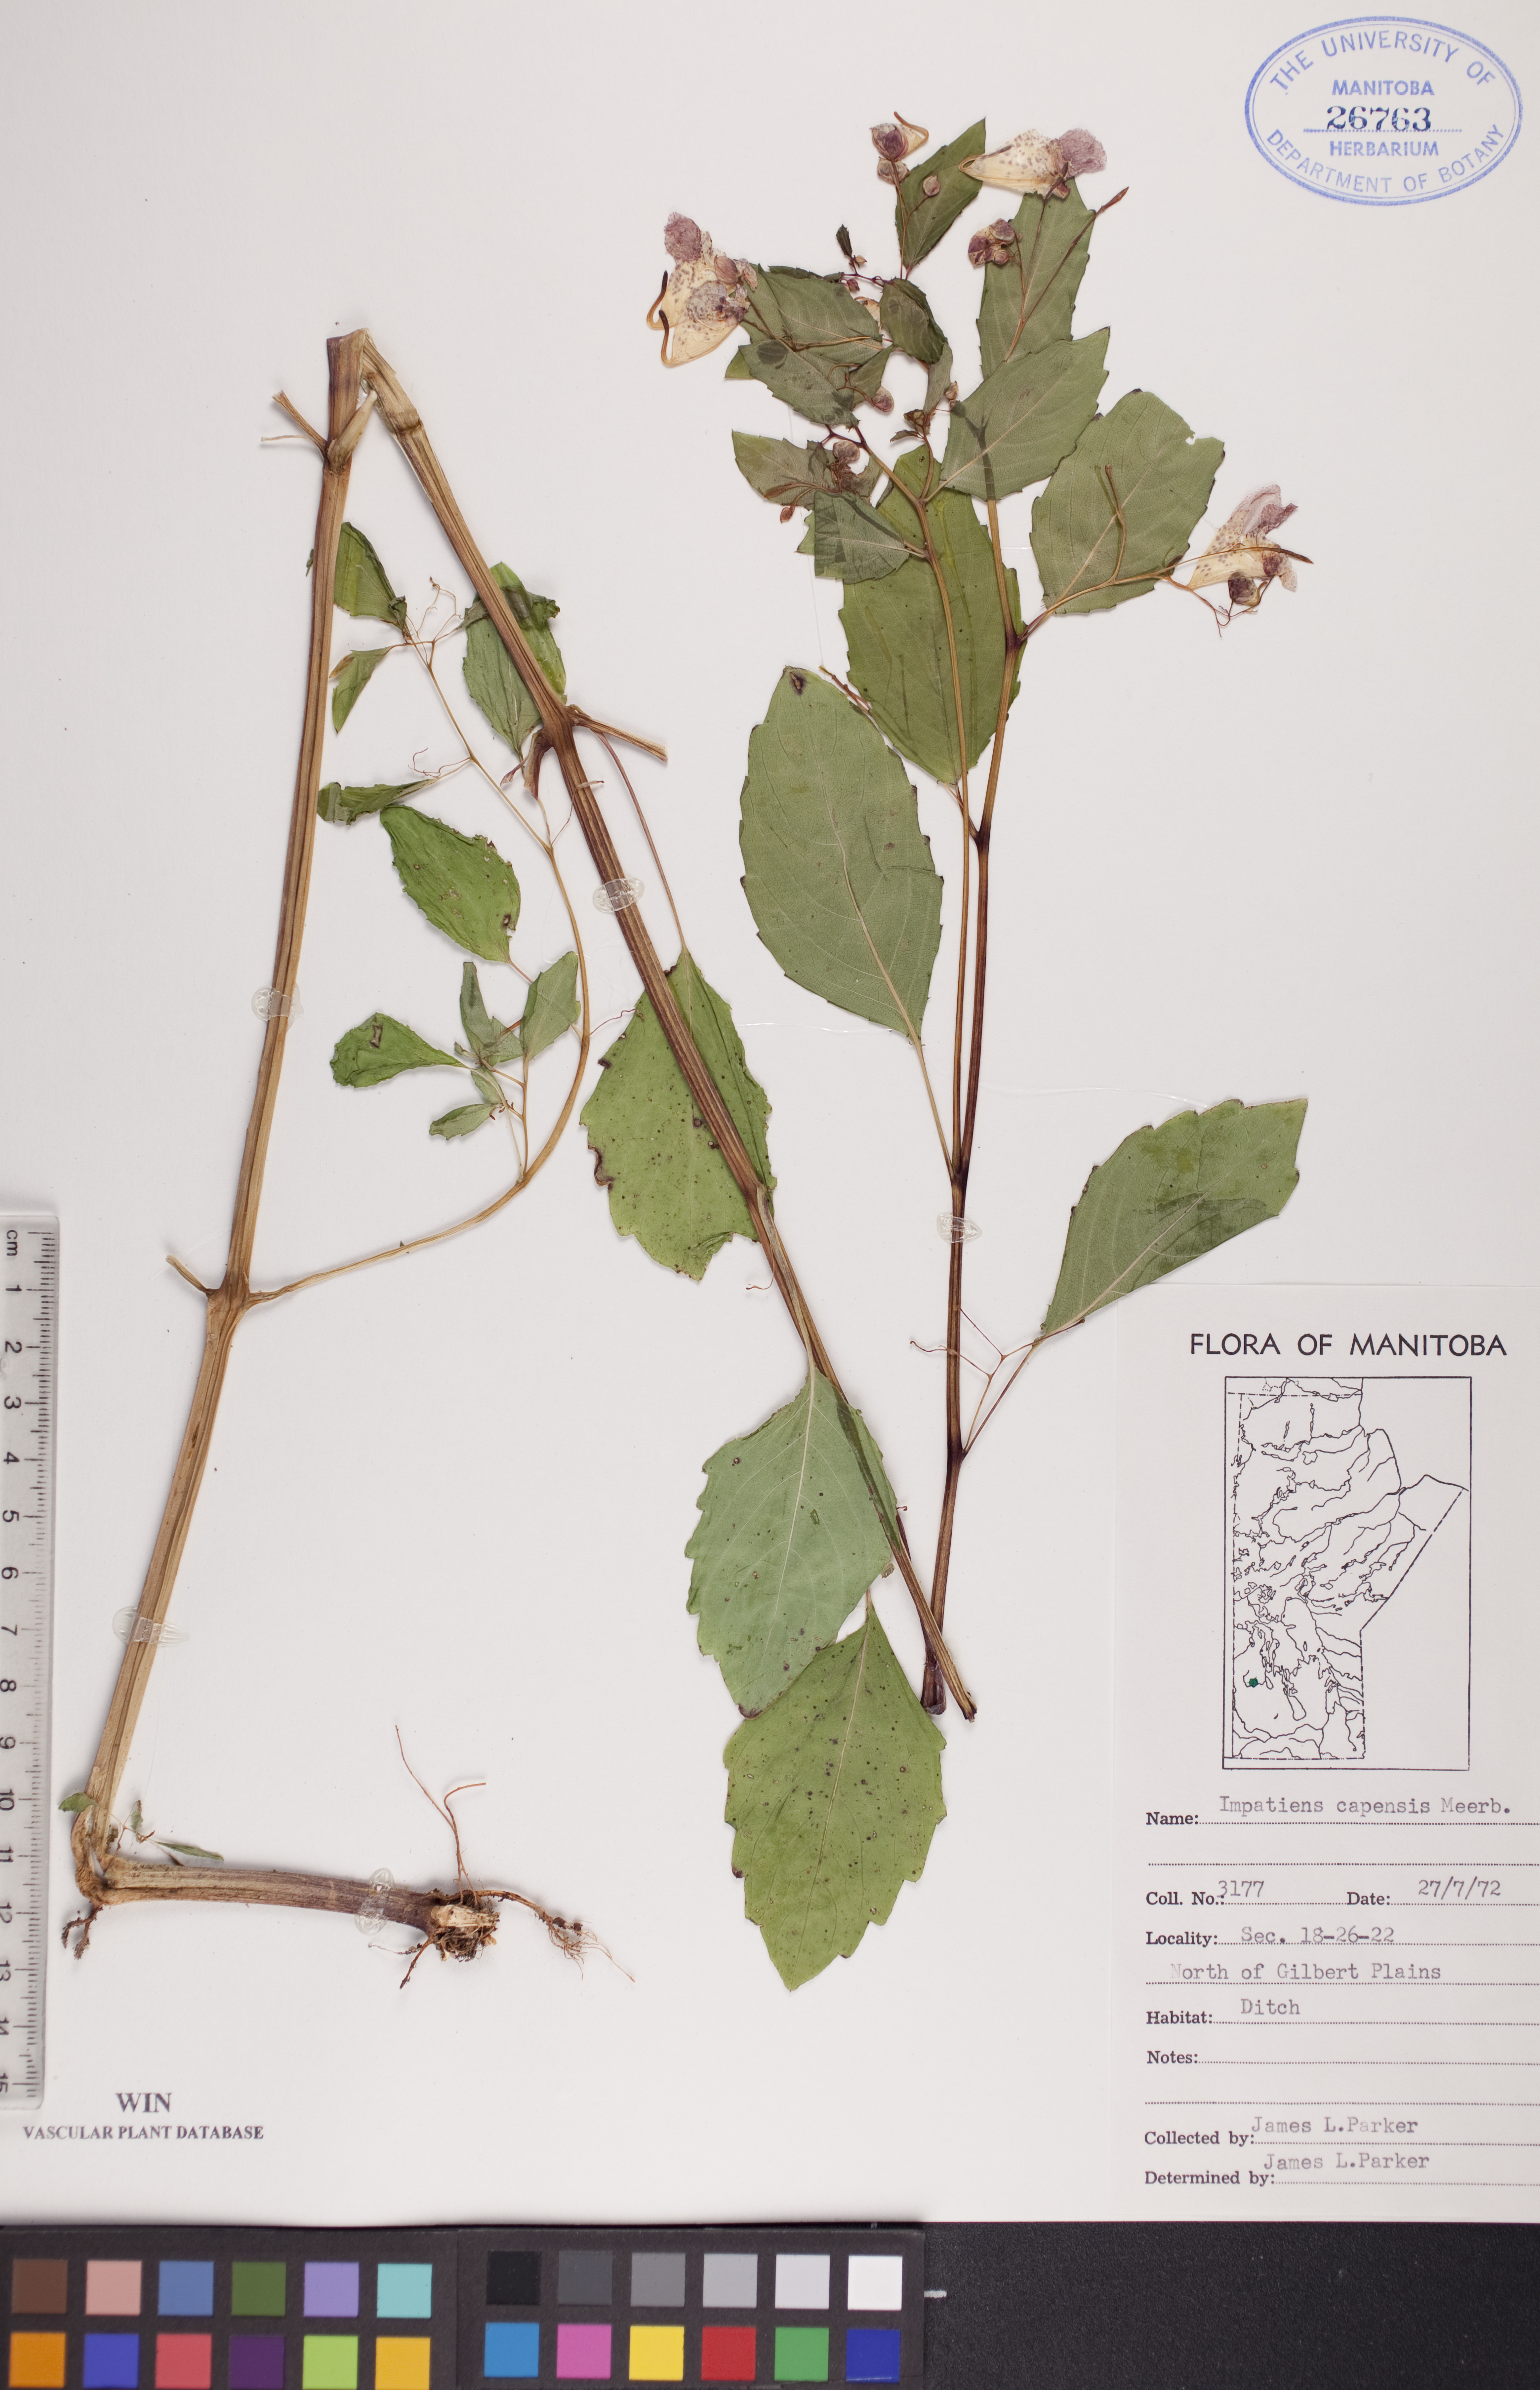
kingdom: Plantae
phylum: Tracheophyta
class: Magnoliopsida
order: Ericales
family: Balsaminaceae
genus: Impatiens
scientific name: Impatiens capensis
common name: Orange balsam
